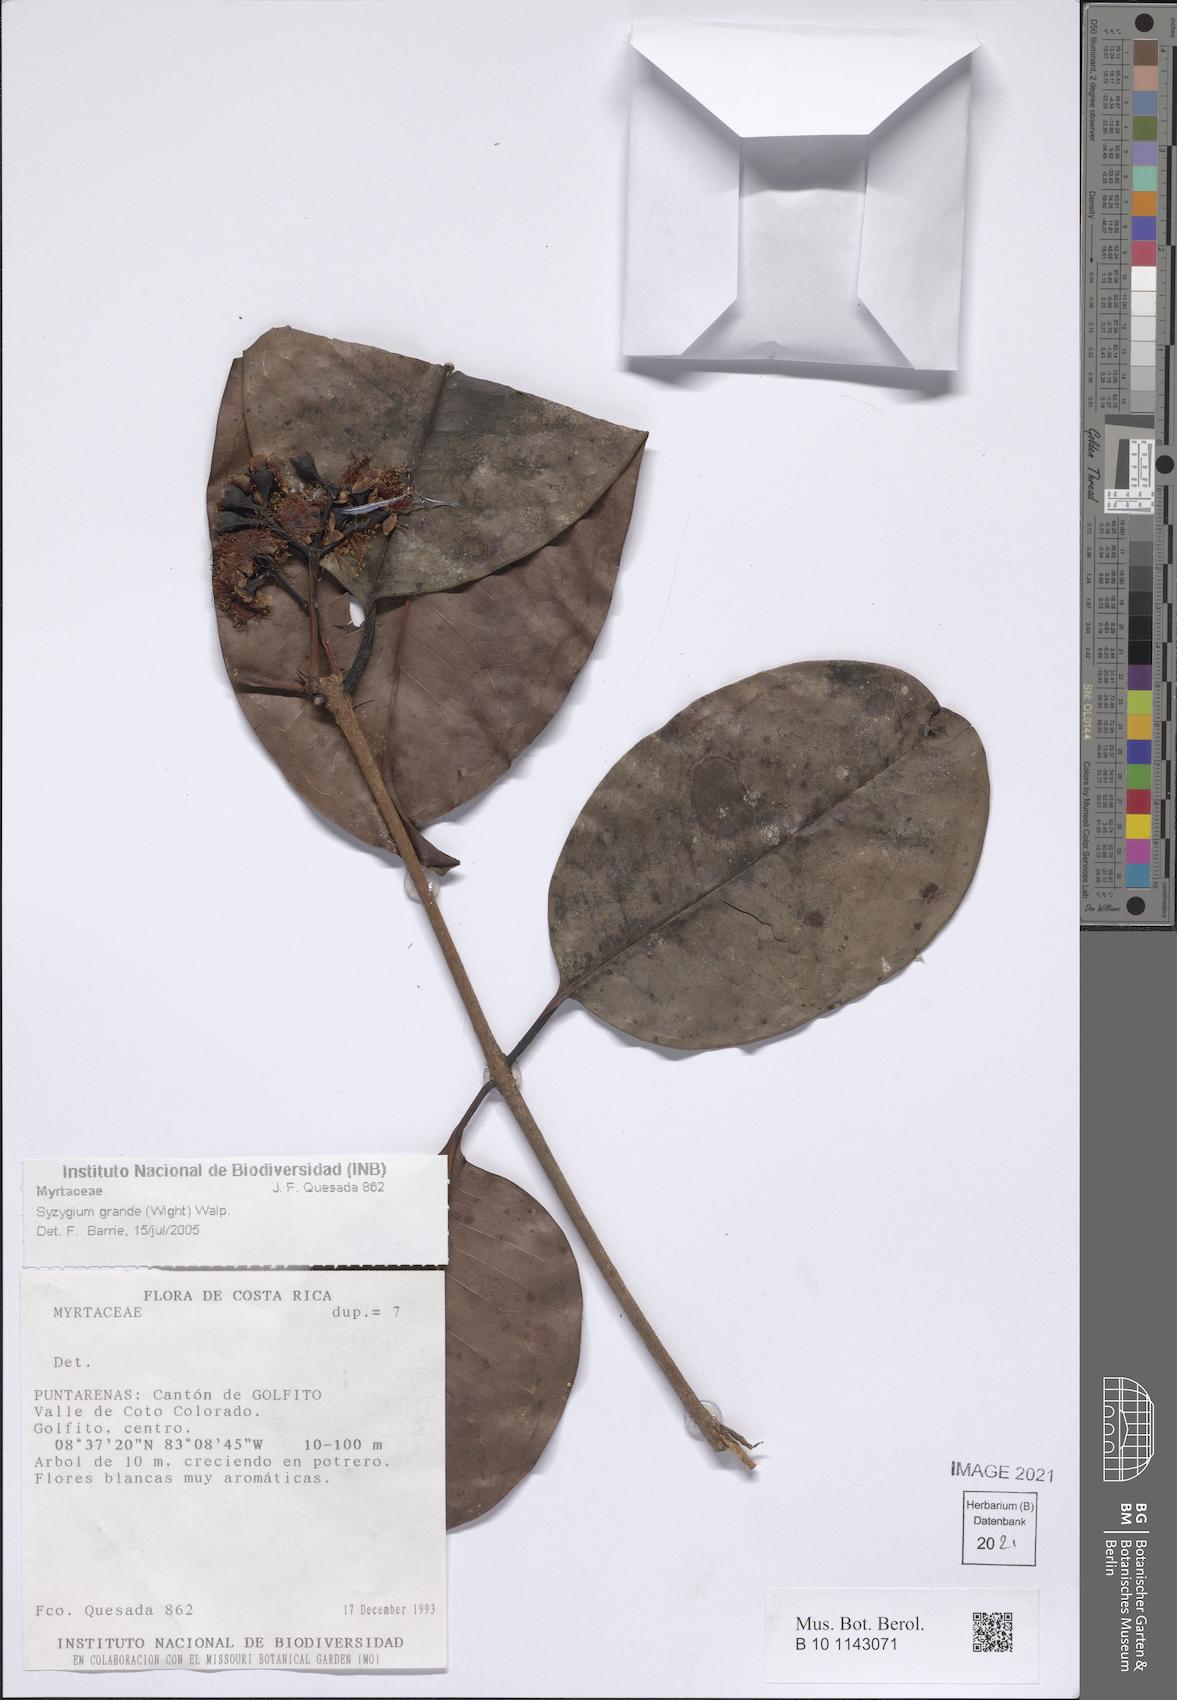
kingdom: Plantae
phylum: Tracheophyta
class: Magnoliopsida
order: Myrtales
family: Myrtaceae
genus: Syzygium
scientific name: Syzygium grande
